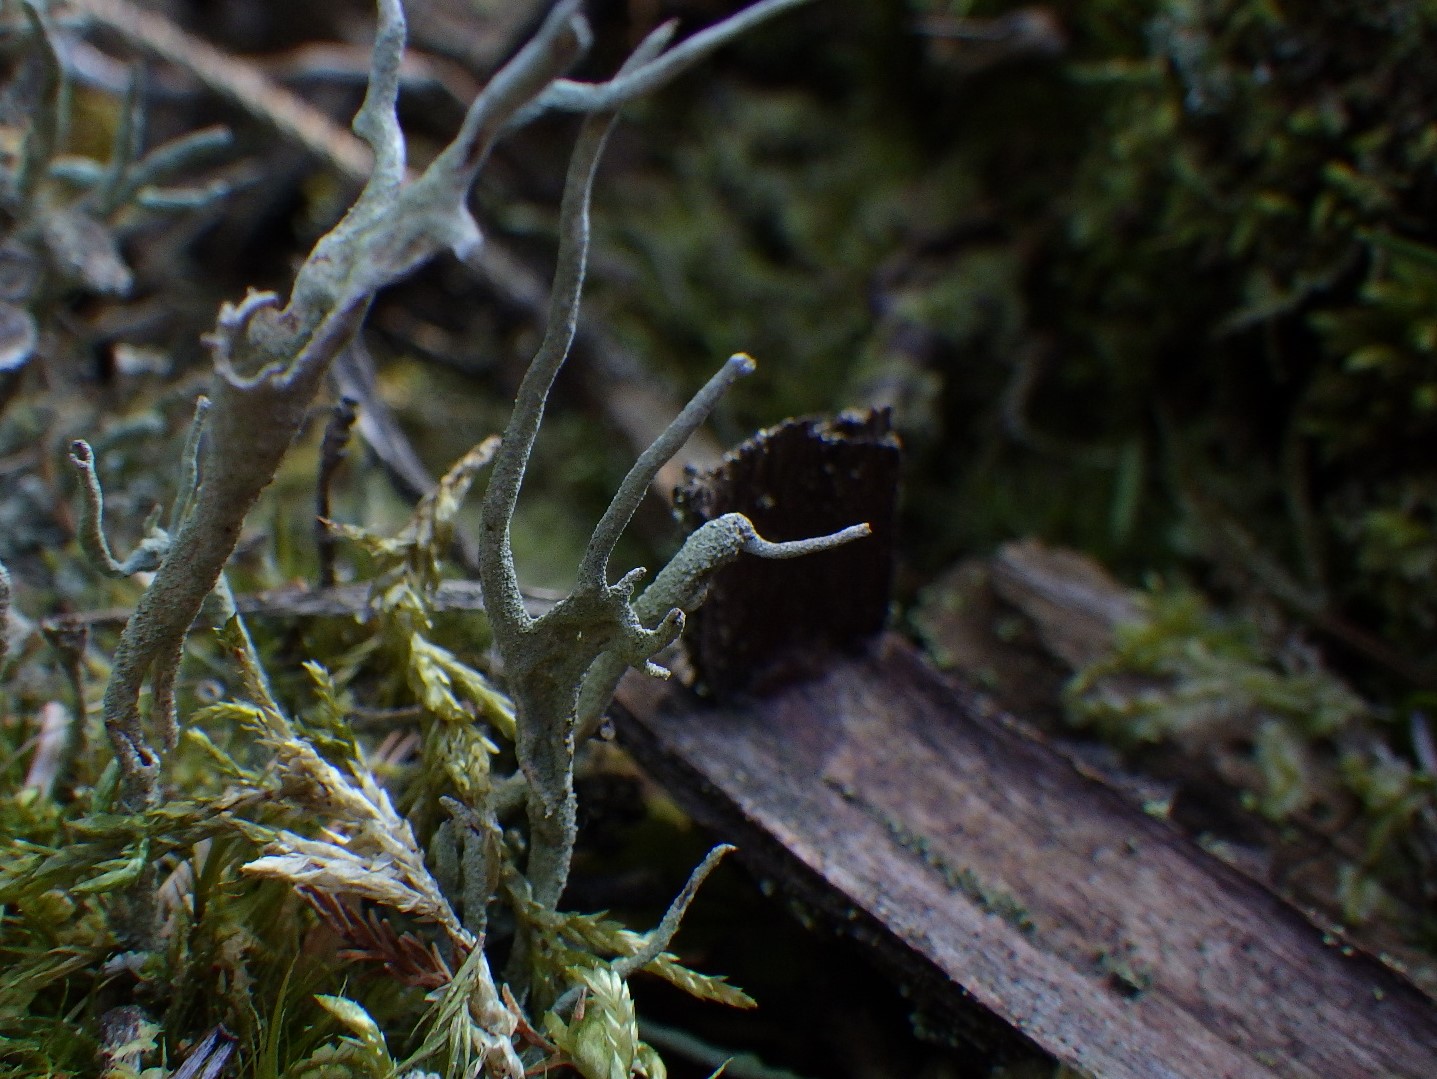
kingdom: Fungi
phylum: Ascomycota
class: Lecanoromycetes
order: Lecanorales
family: Cladoniaceae
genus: Cladonia
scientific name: Cladonia subulata
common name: spids bægerlav
